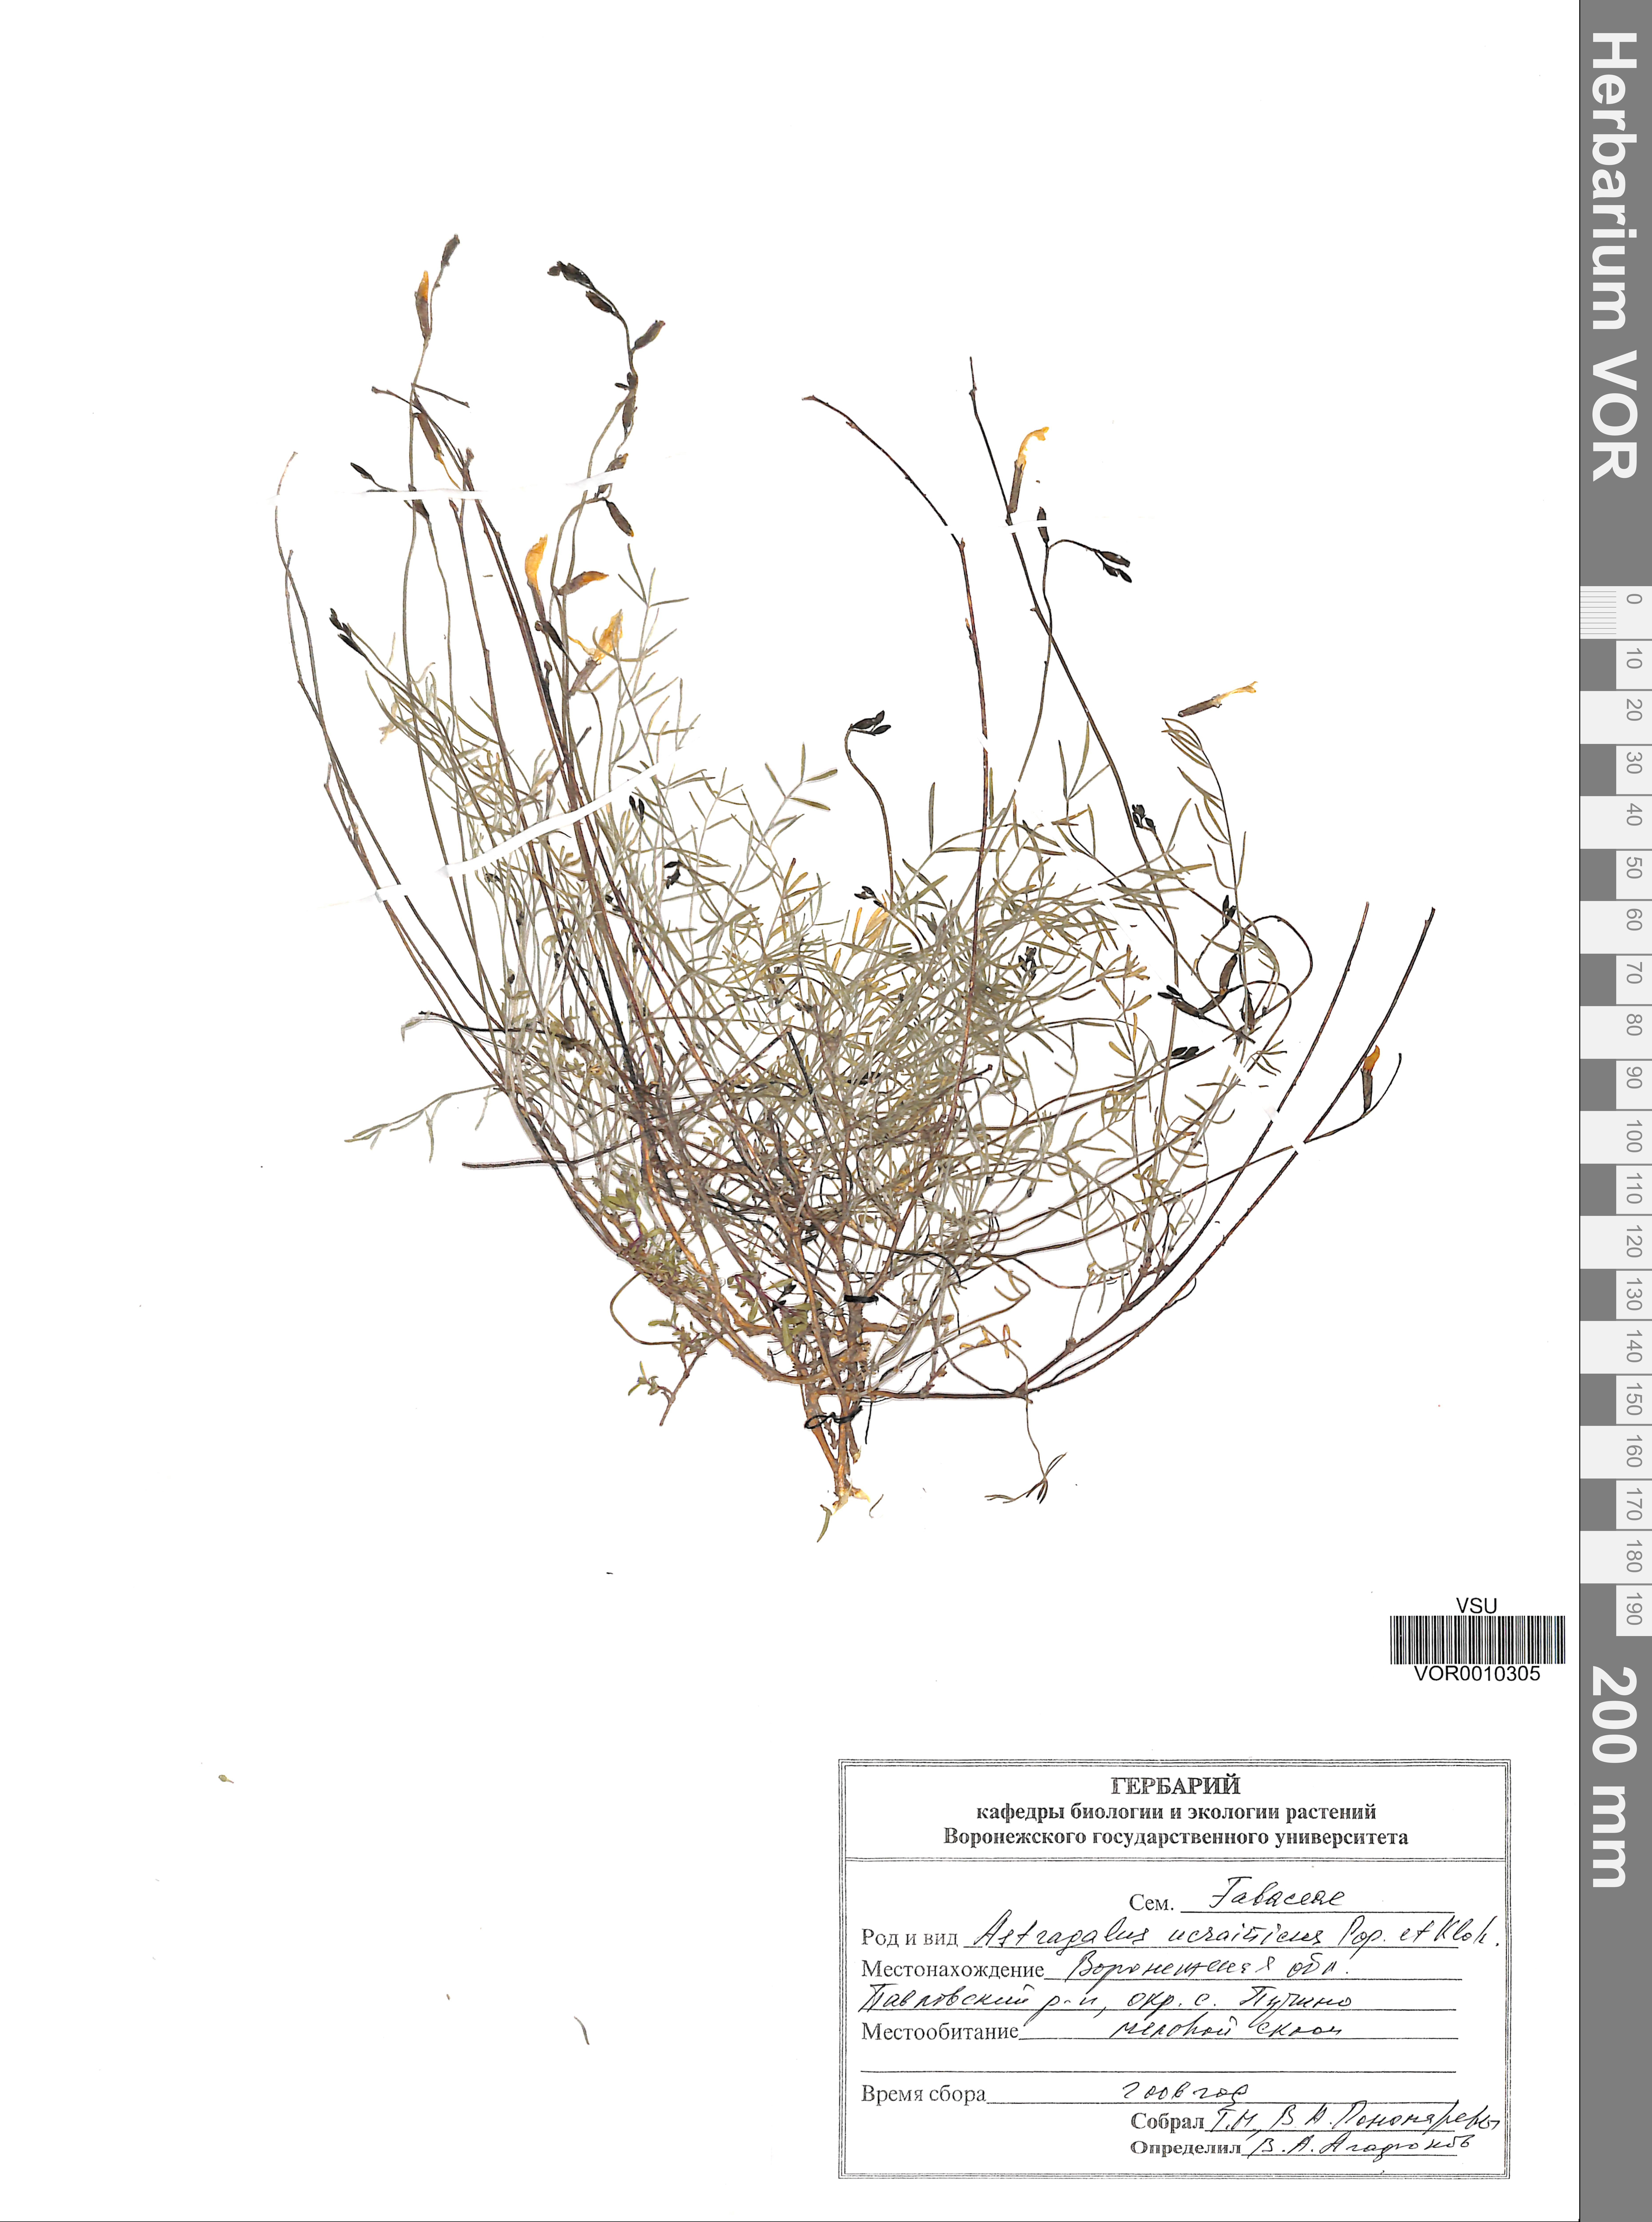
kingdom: Plantae
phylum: Tracheophyta
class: Magnoliopsida
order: Fabales
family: Fabaceae
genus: Astragalus
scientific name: Astragalus ucrainicus
